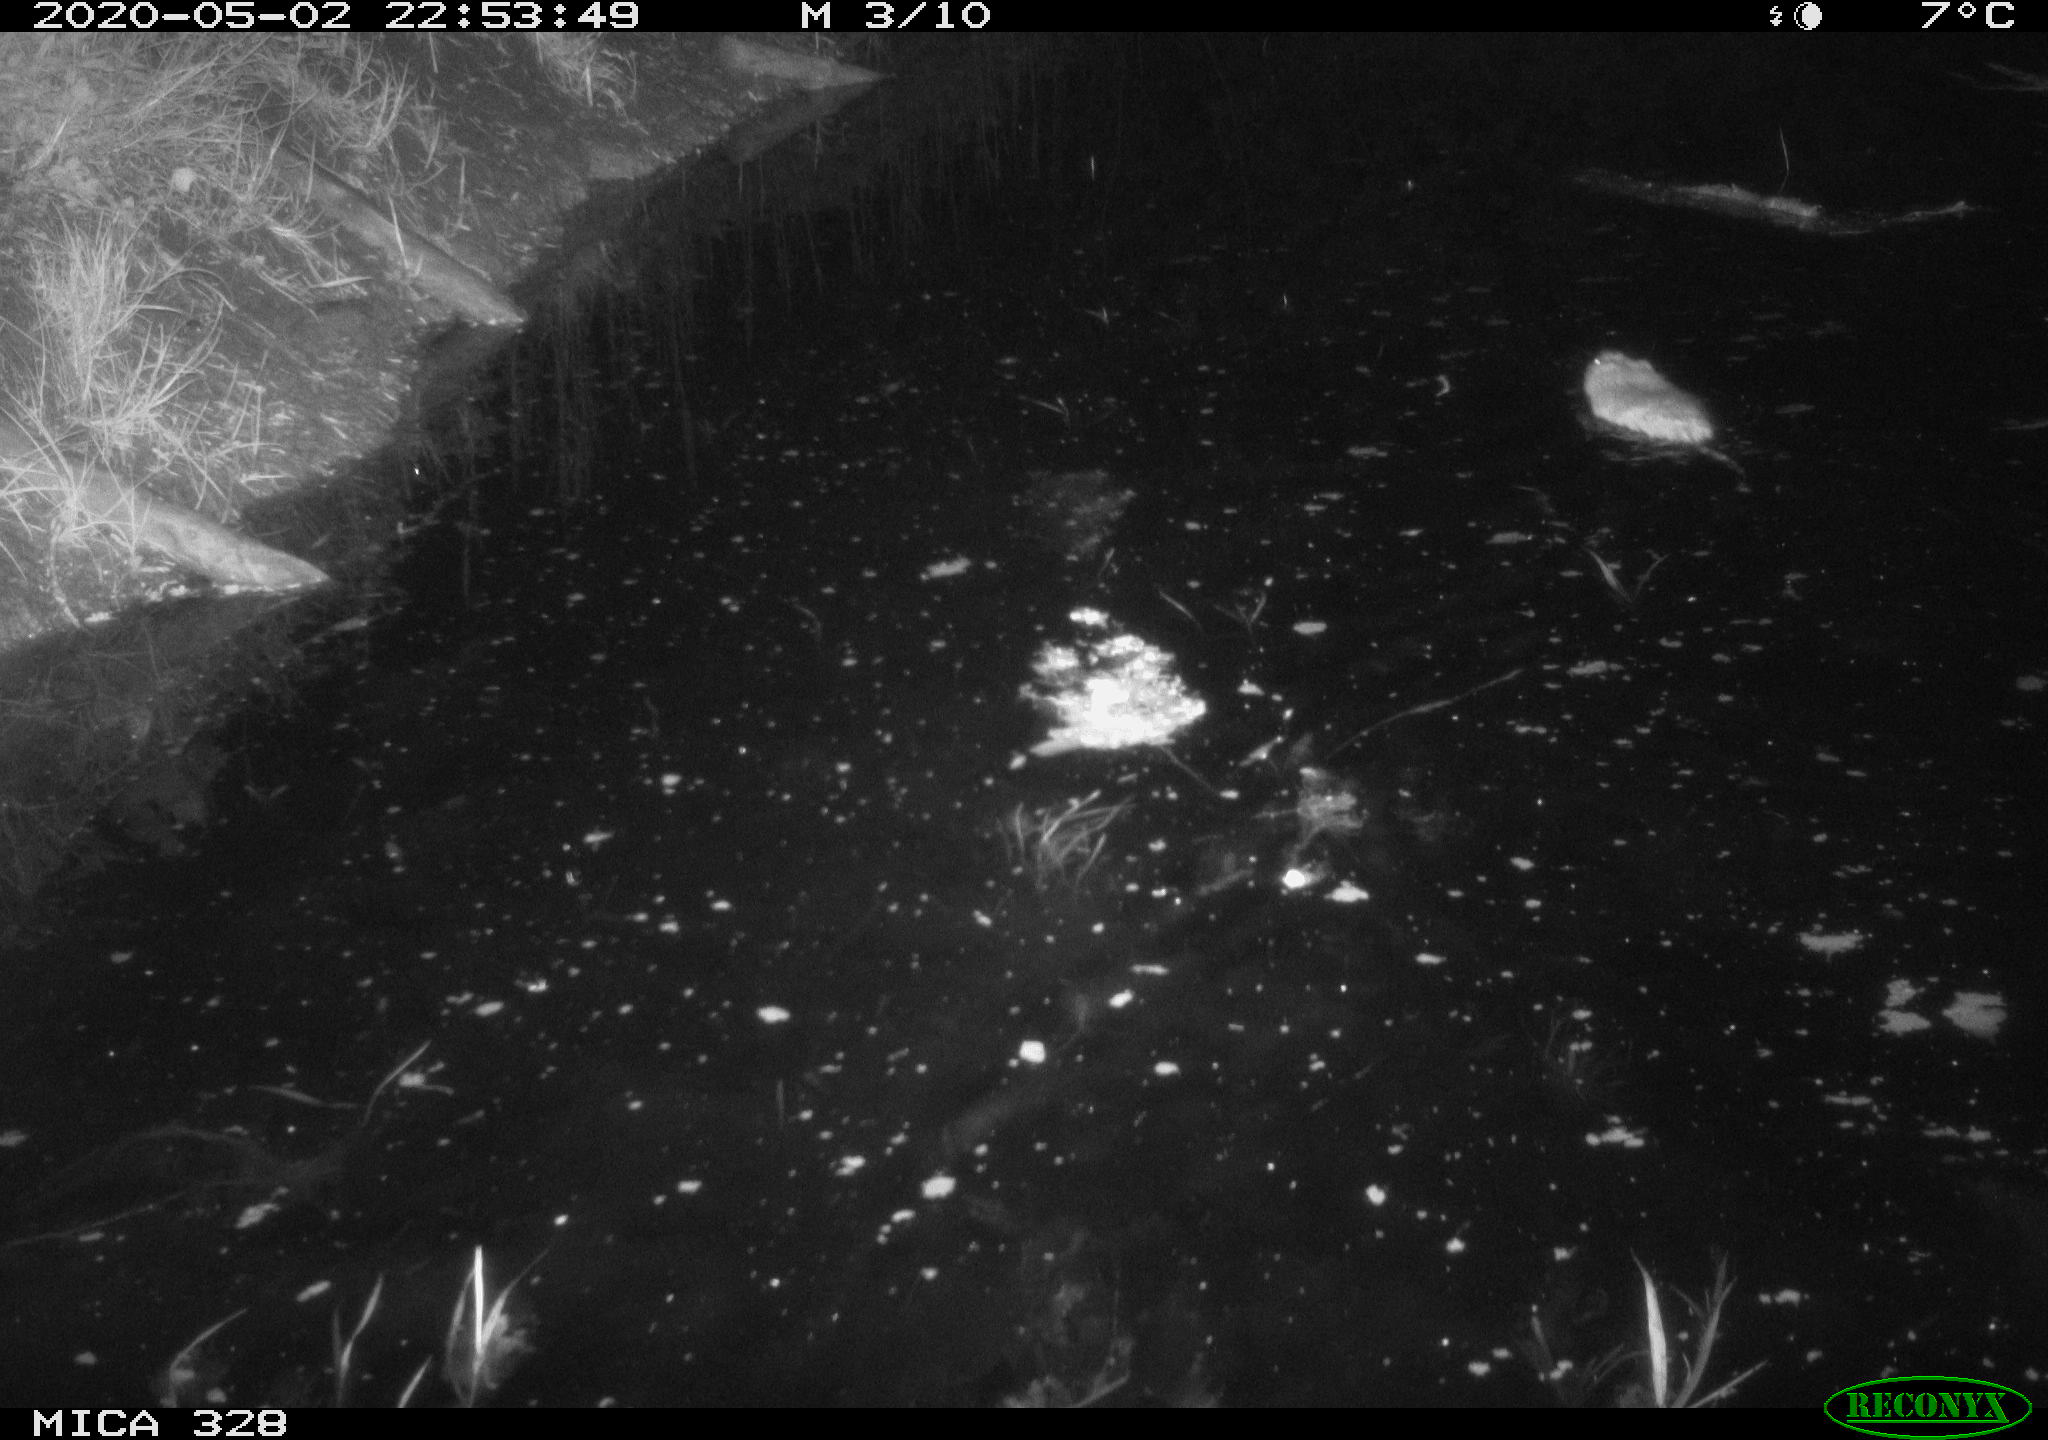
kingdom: Animalia
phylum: Chordata
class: Mammalia
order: Rodentia
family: Cricetidae
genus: Ondatra
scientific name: Ondatra zibethicus
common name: Muskrat
